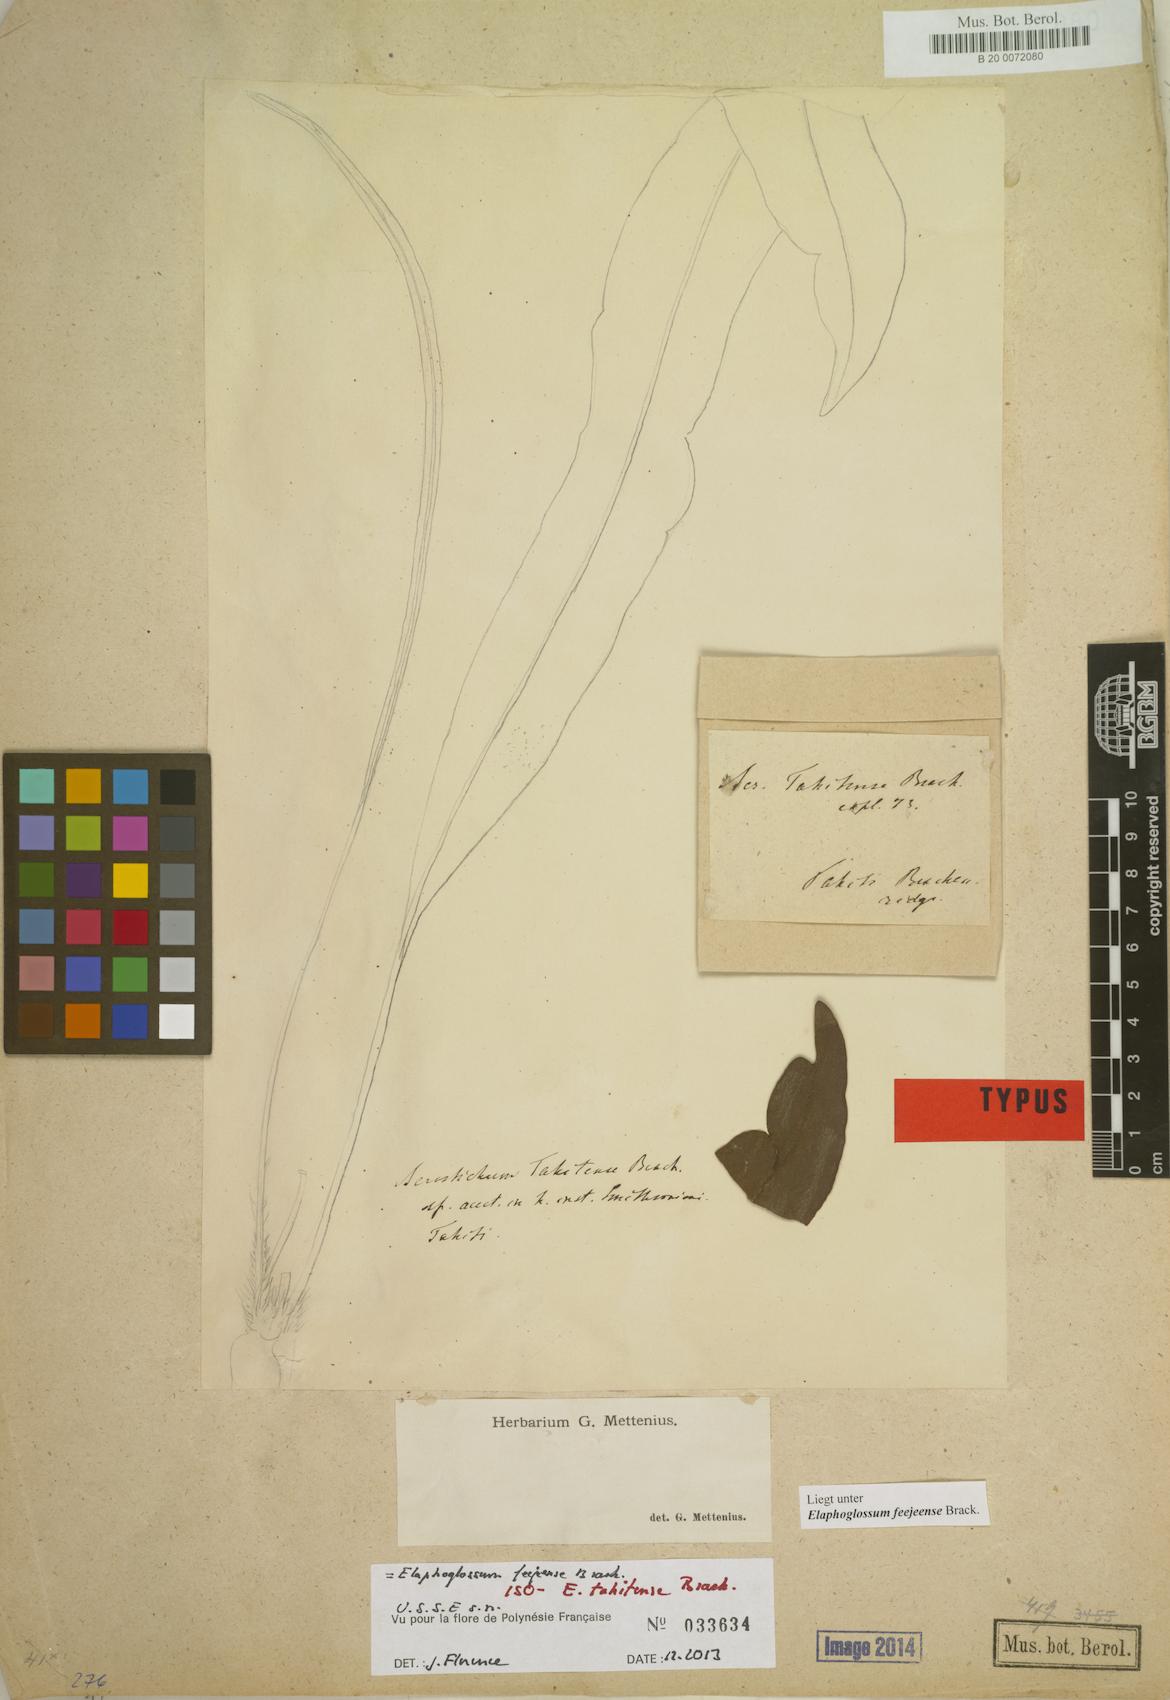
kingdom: Plantae
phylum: Tracheophyta
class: Polypodiopsida
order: Polypodiales
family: Dryopteridaceae
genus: Elaphoglossum
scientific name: Elaphoglossum feejeense
